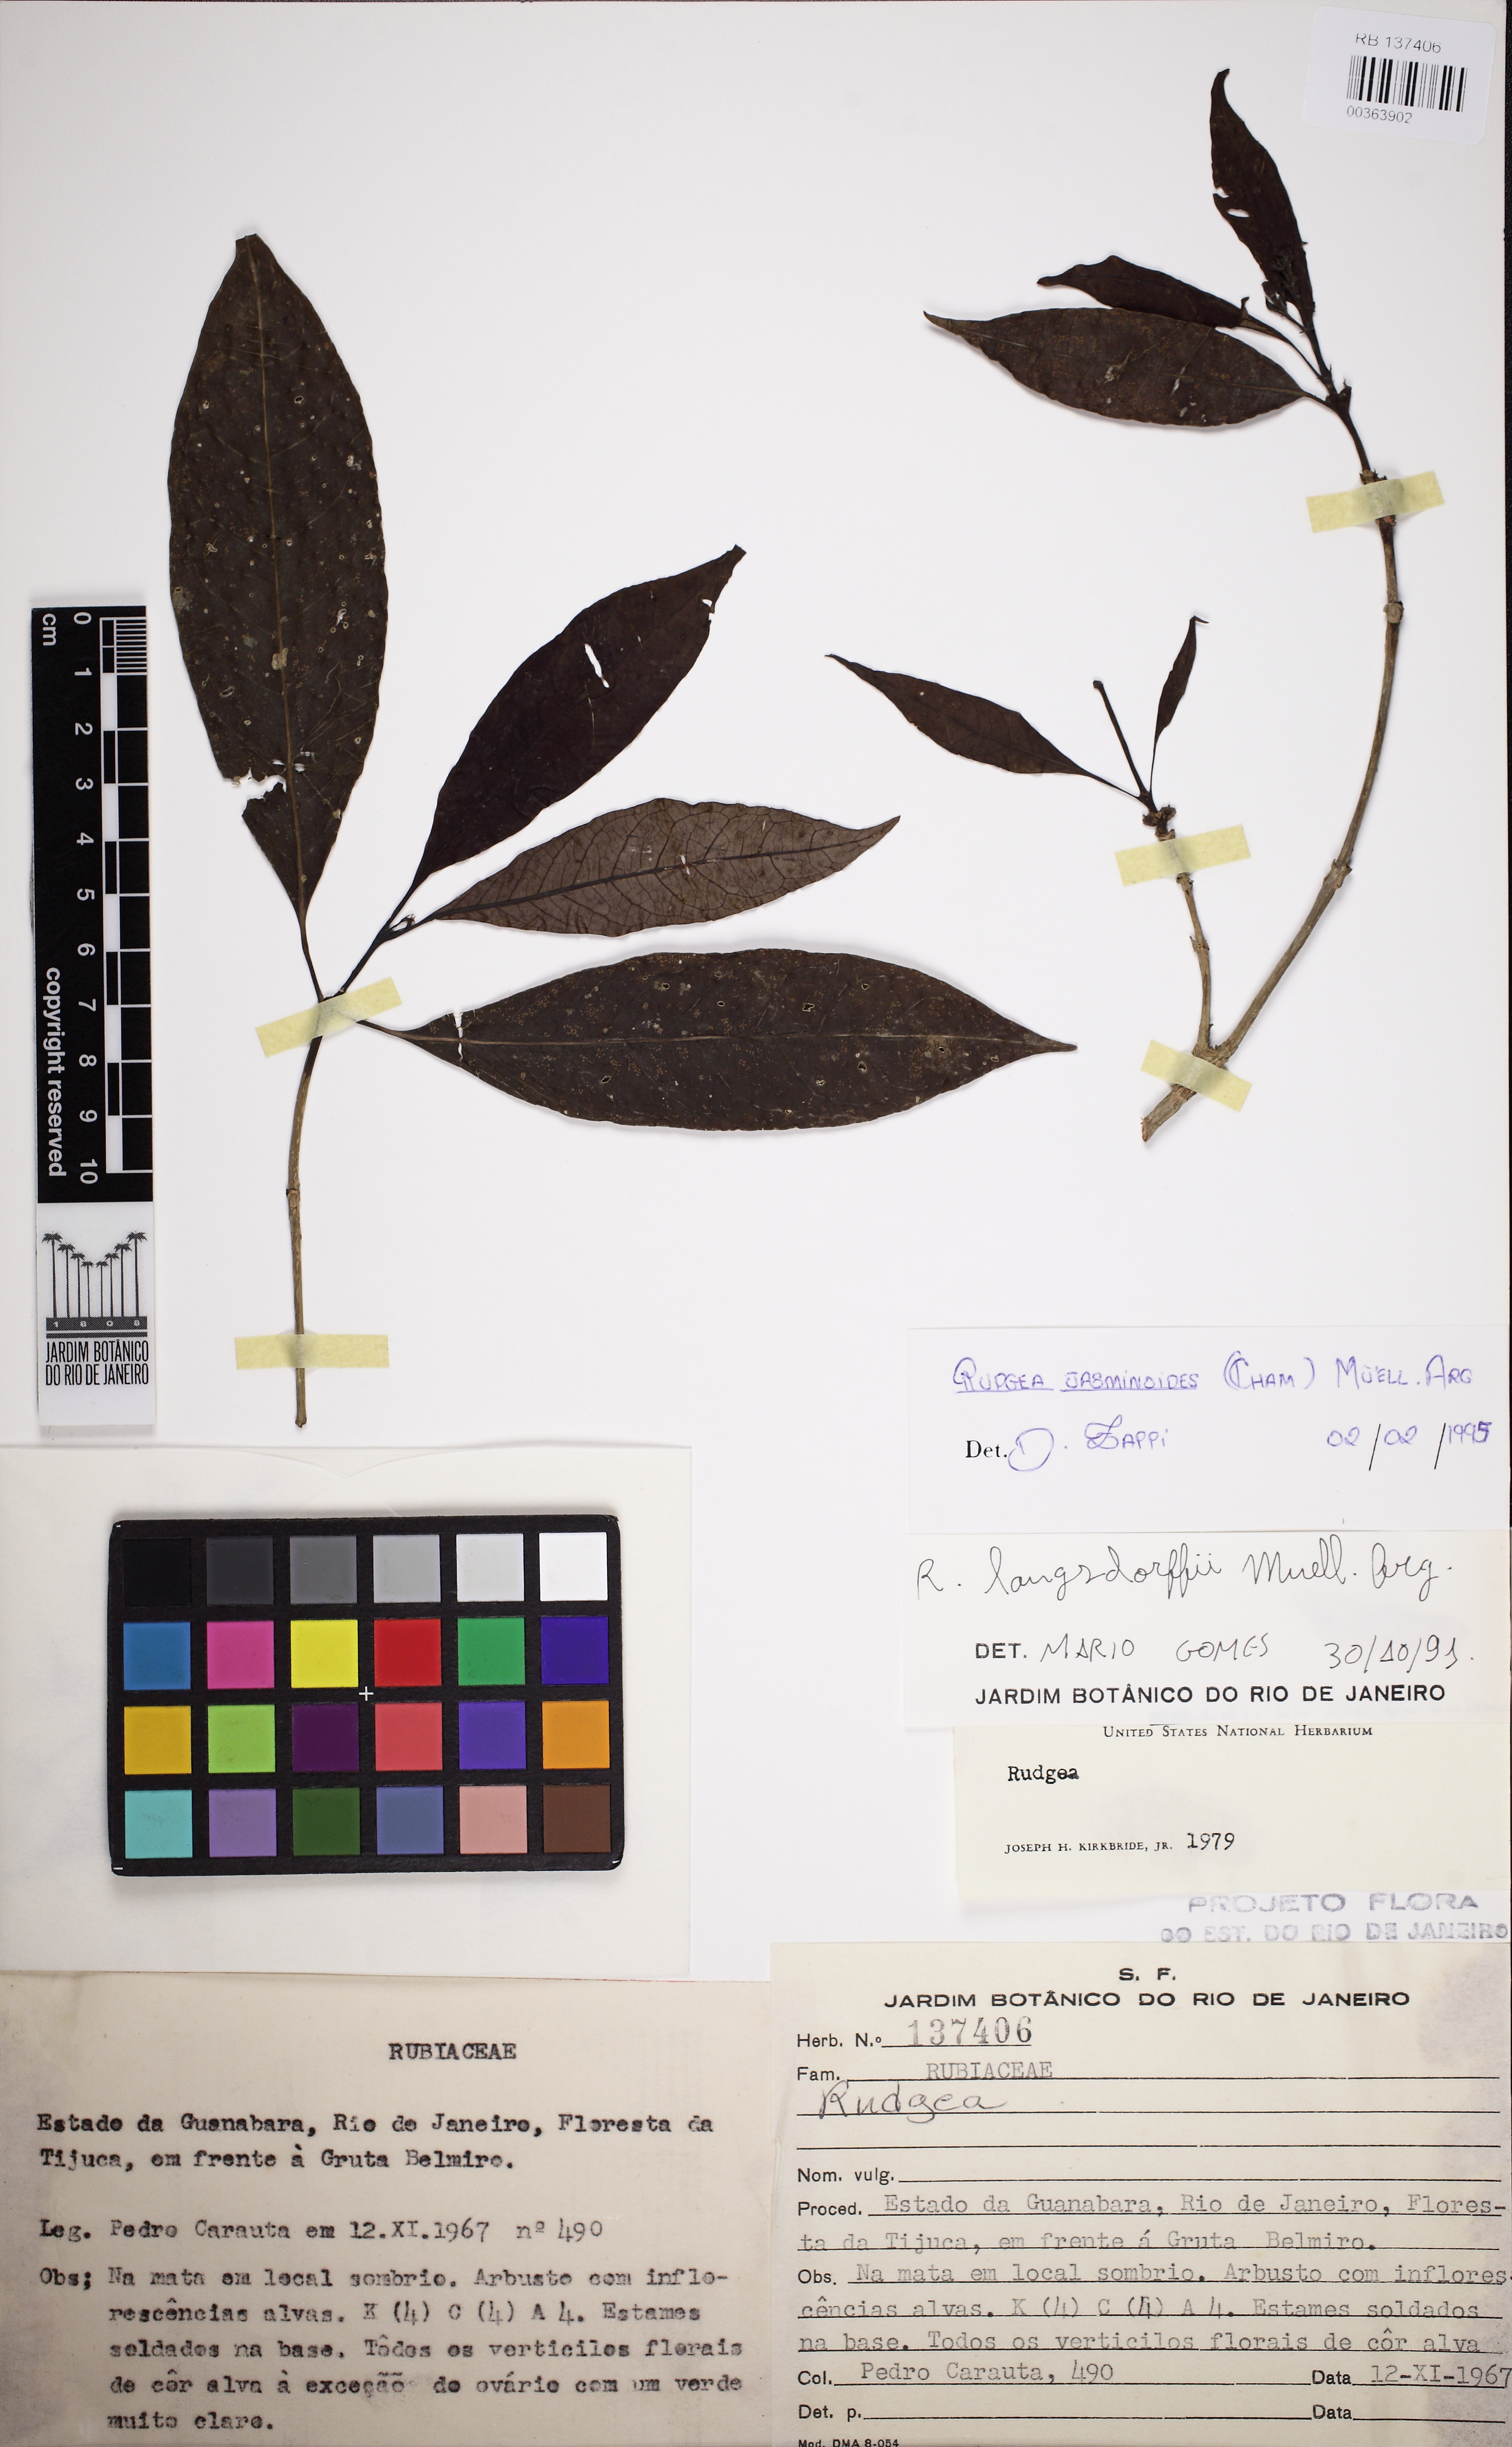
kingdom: Plantae
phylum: Tracheophyta
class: Magnoliopsida
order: Gentianales
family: Rubiaceae
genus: Rudgea
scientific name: Rudgea jasminoides
